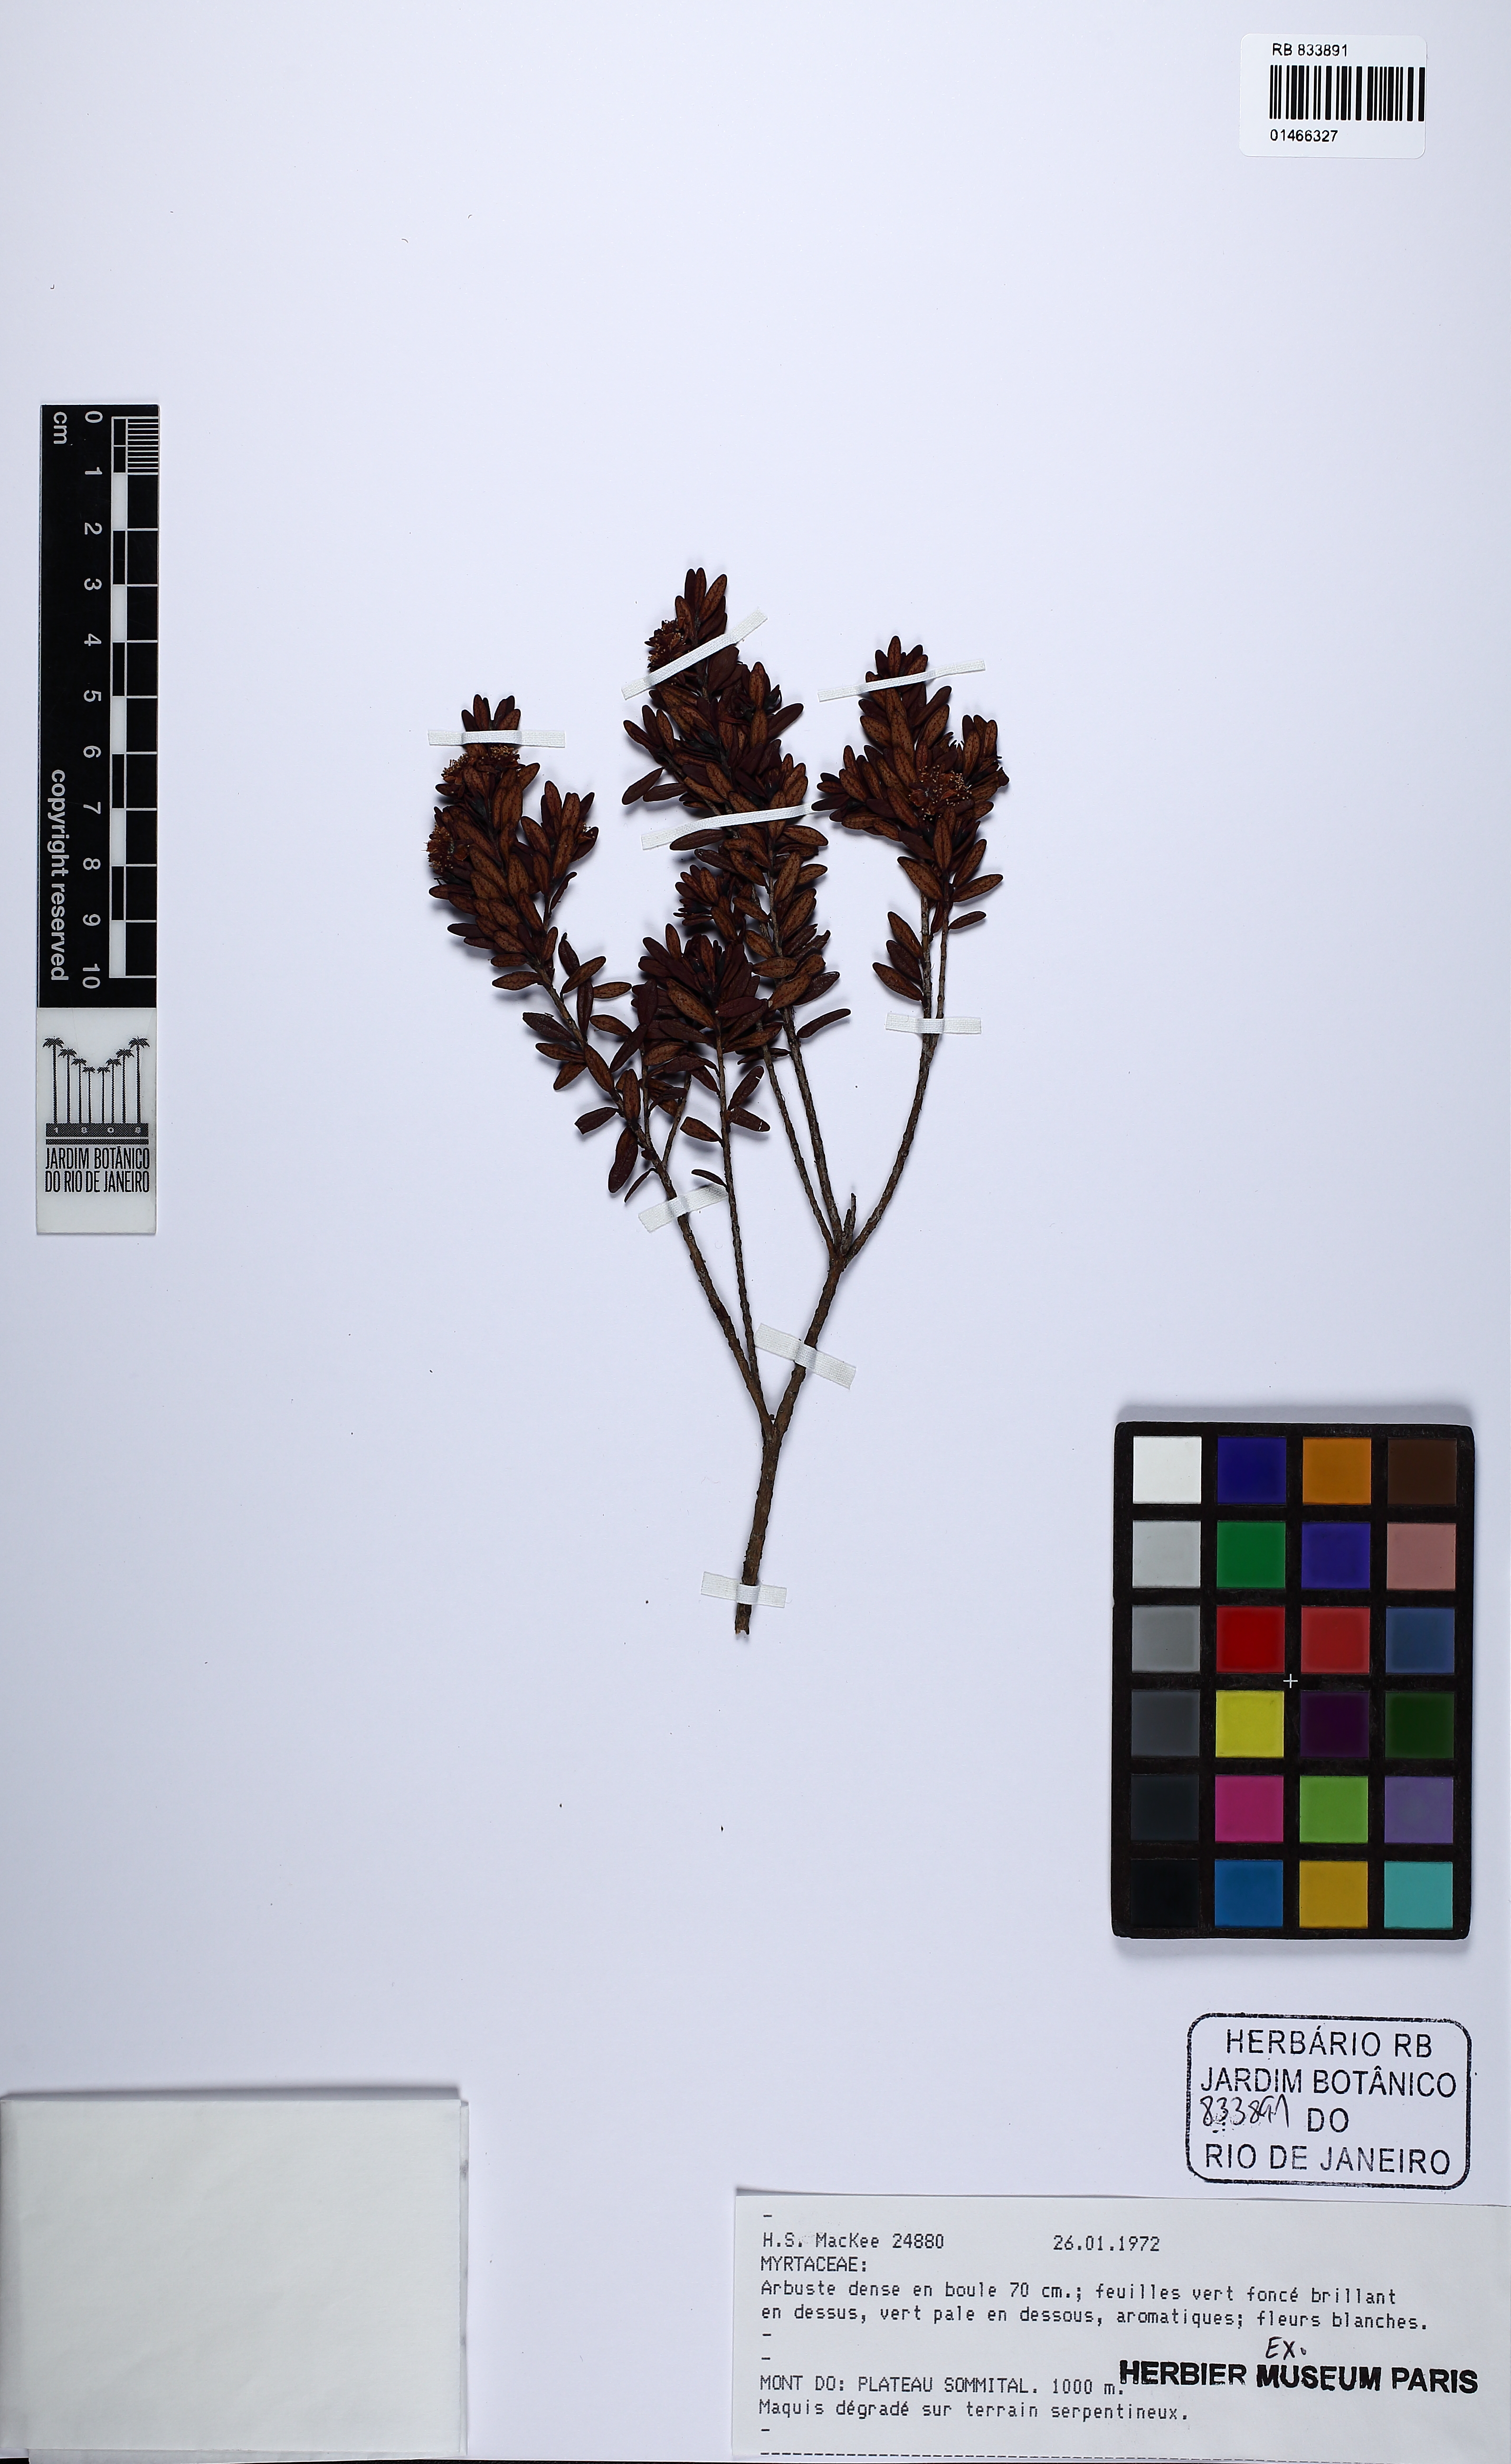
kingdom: Plantae
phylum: Tracheophyta
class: Magnoliopsida
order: Myrtales
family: Myrtaceae
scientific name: Myrtaceae
